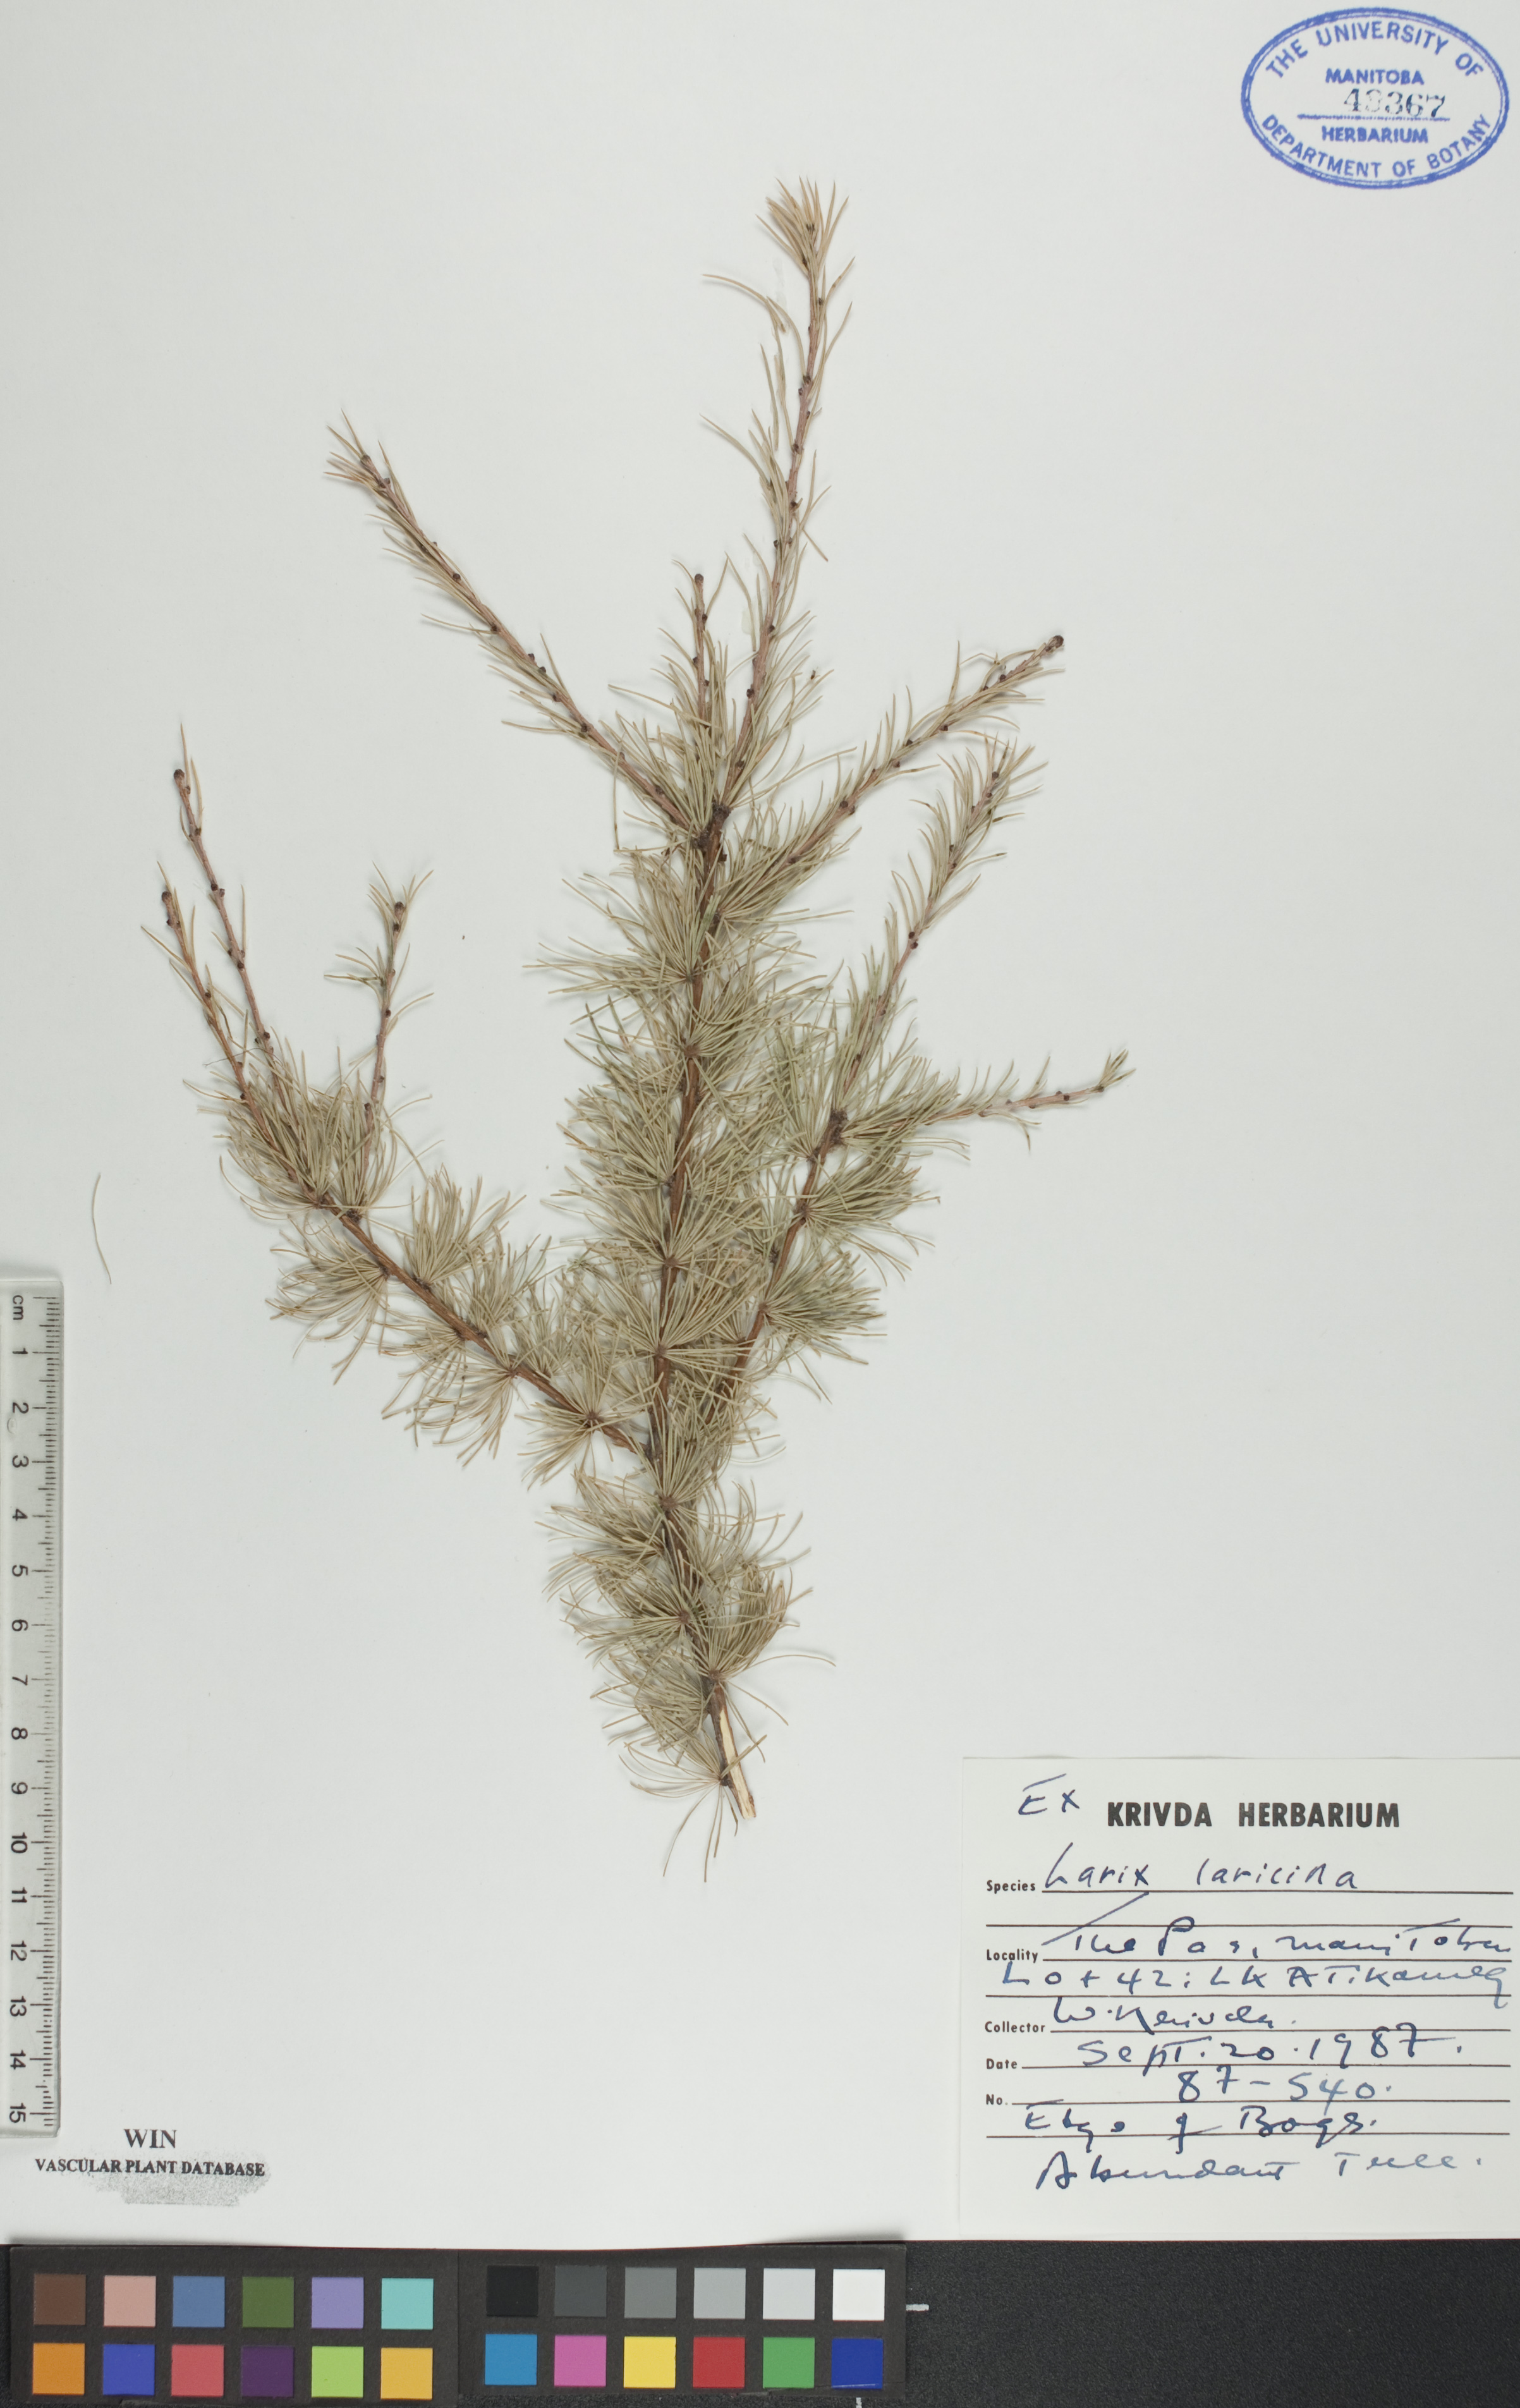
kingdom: Plantae
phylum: Tracheophyta
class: Pinopsida
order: Pinales
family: Pinaceae
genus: Larix
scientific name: Larix laricina
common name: American larch
